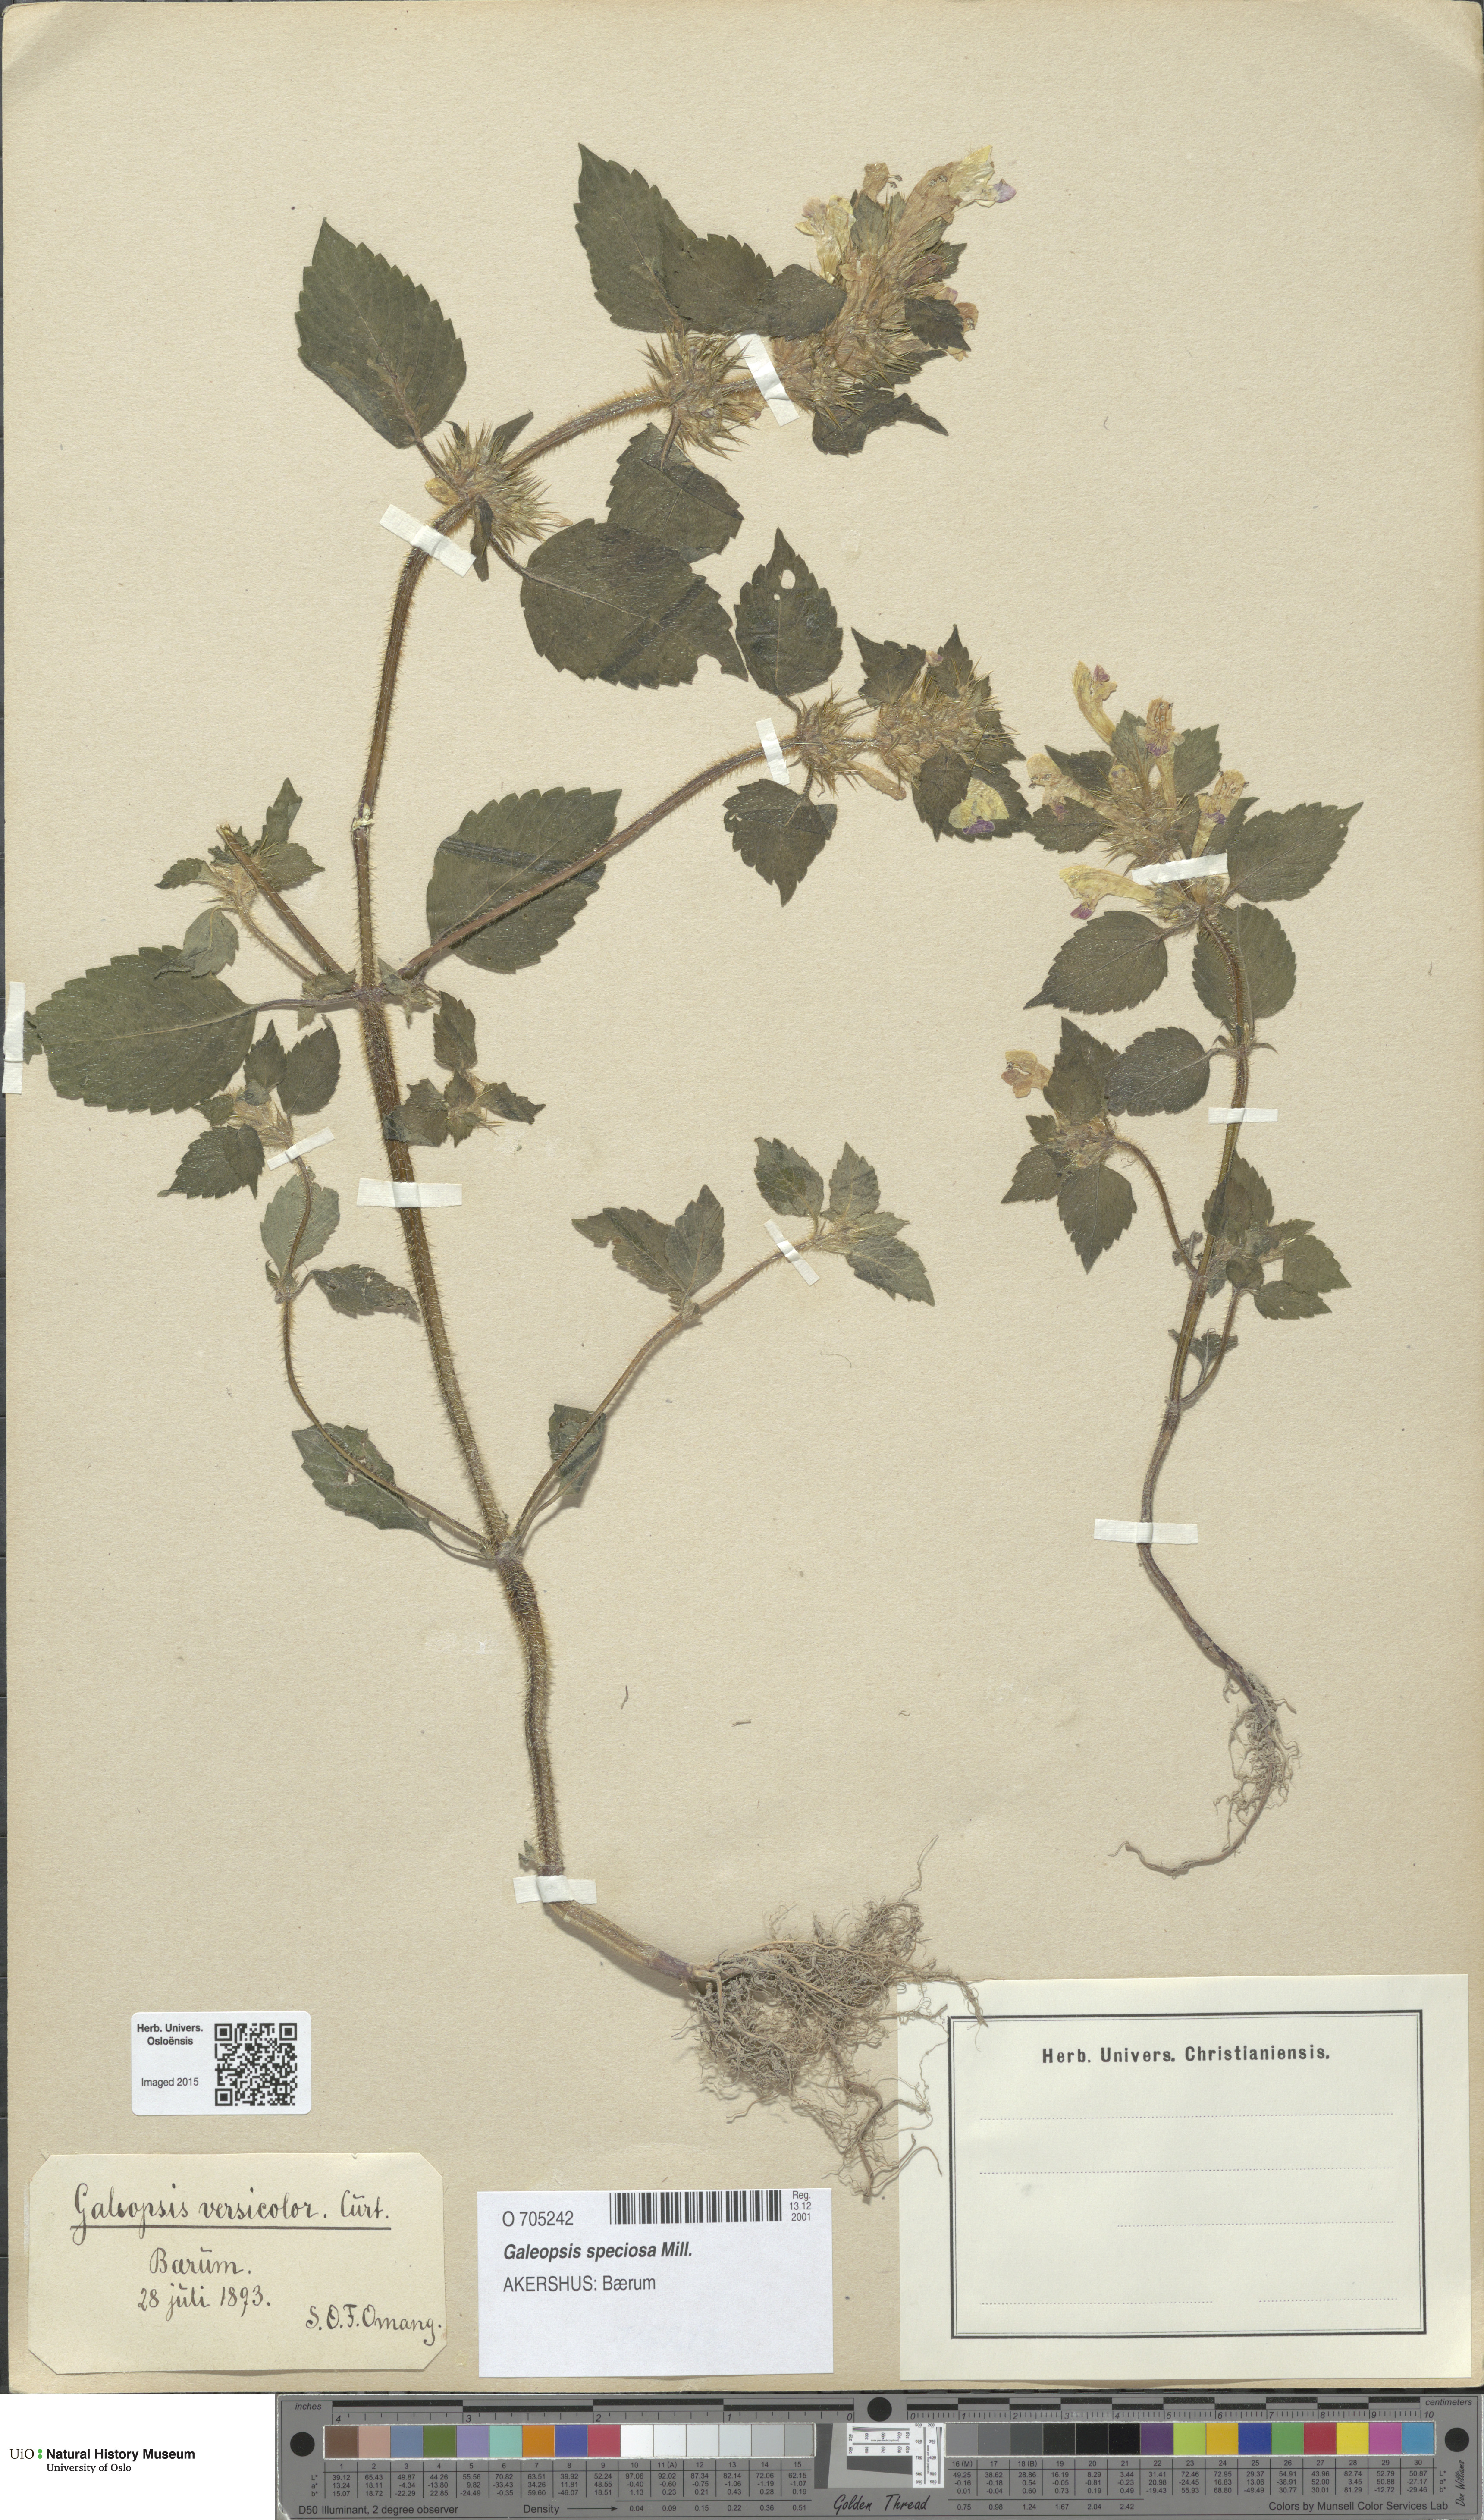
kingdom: Plantae
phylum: Tracheophyta
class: Magnoliopsida
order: Lamiales
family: Lamiaceae
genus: Galeopsis
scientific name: Galeopsis speciosa
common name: Large-flowered hemp-nettle
